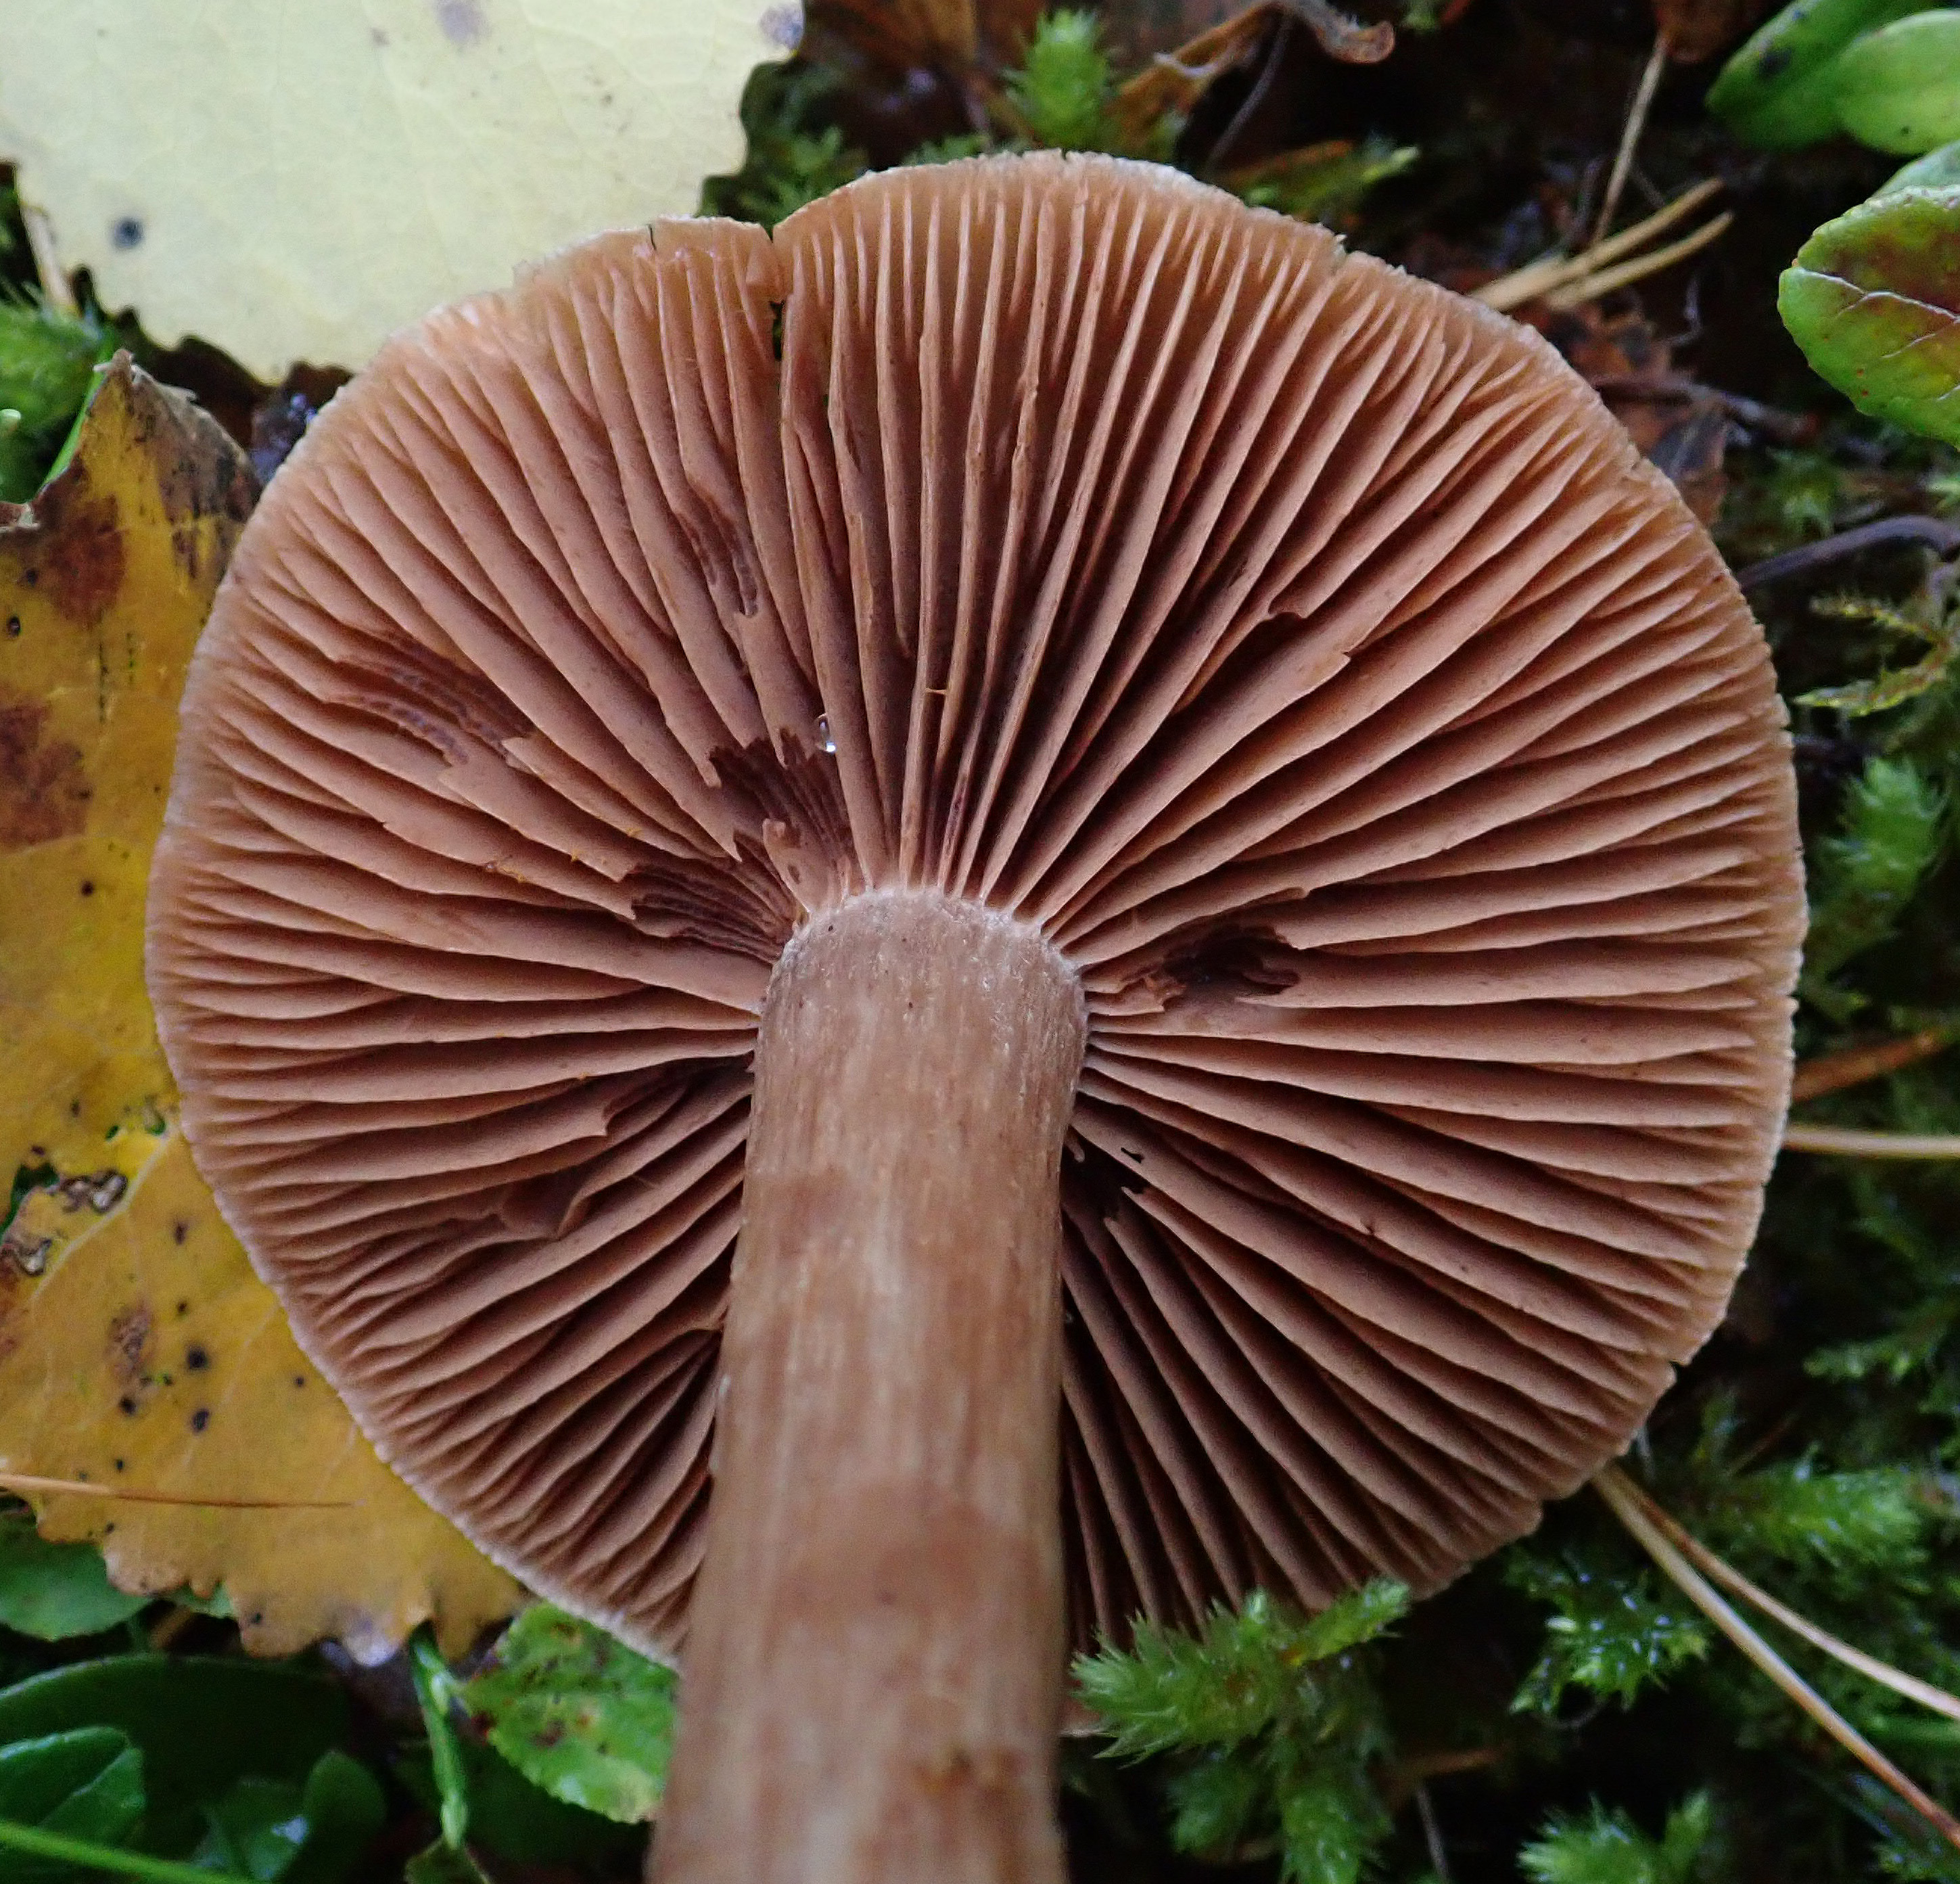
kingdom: Fungi
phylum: Basidiomycota
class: Agaricomycetes
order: Agaricales
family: Cortinariaceae
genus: Cortinarius
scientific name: Cortinarius raphanoides
